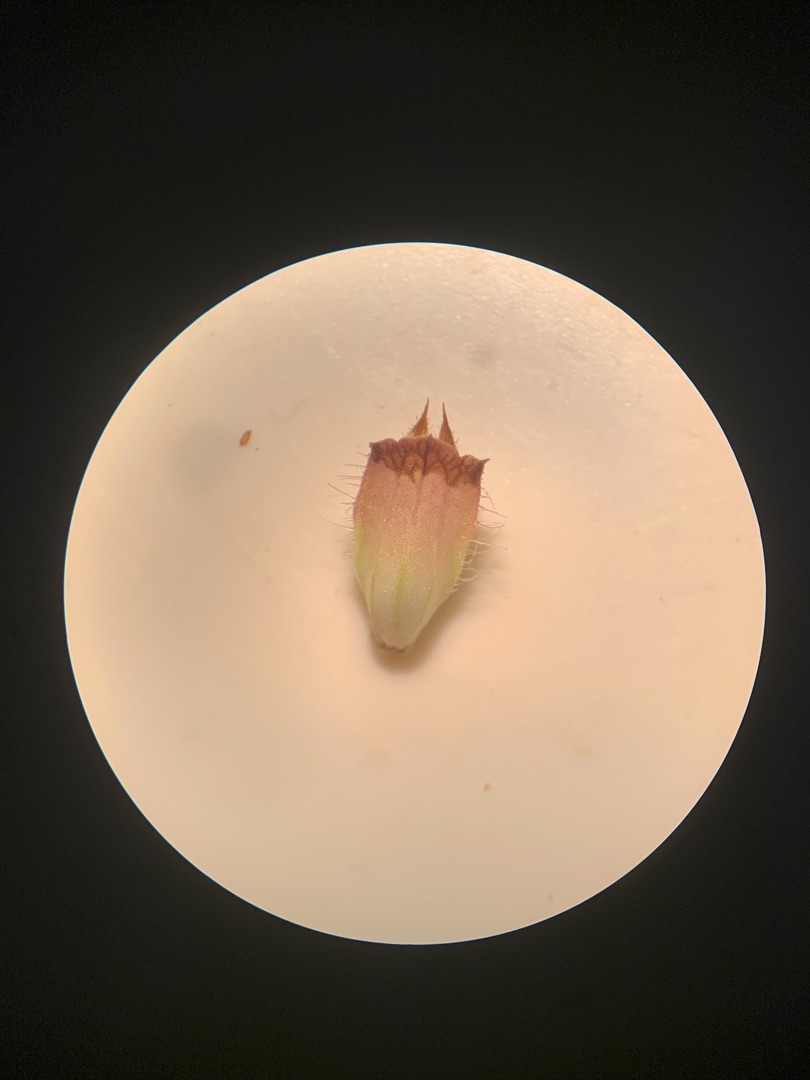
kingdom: Plantae
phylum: Tracheophyta
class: Magnoliopsida
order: Lamiales
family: Lamiaceae
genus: Prunella
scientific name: Prunella vulgaris
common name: Almindelig brunelle
